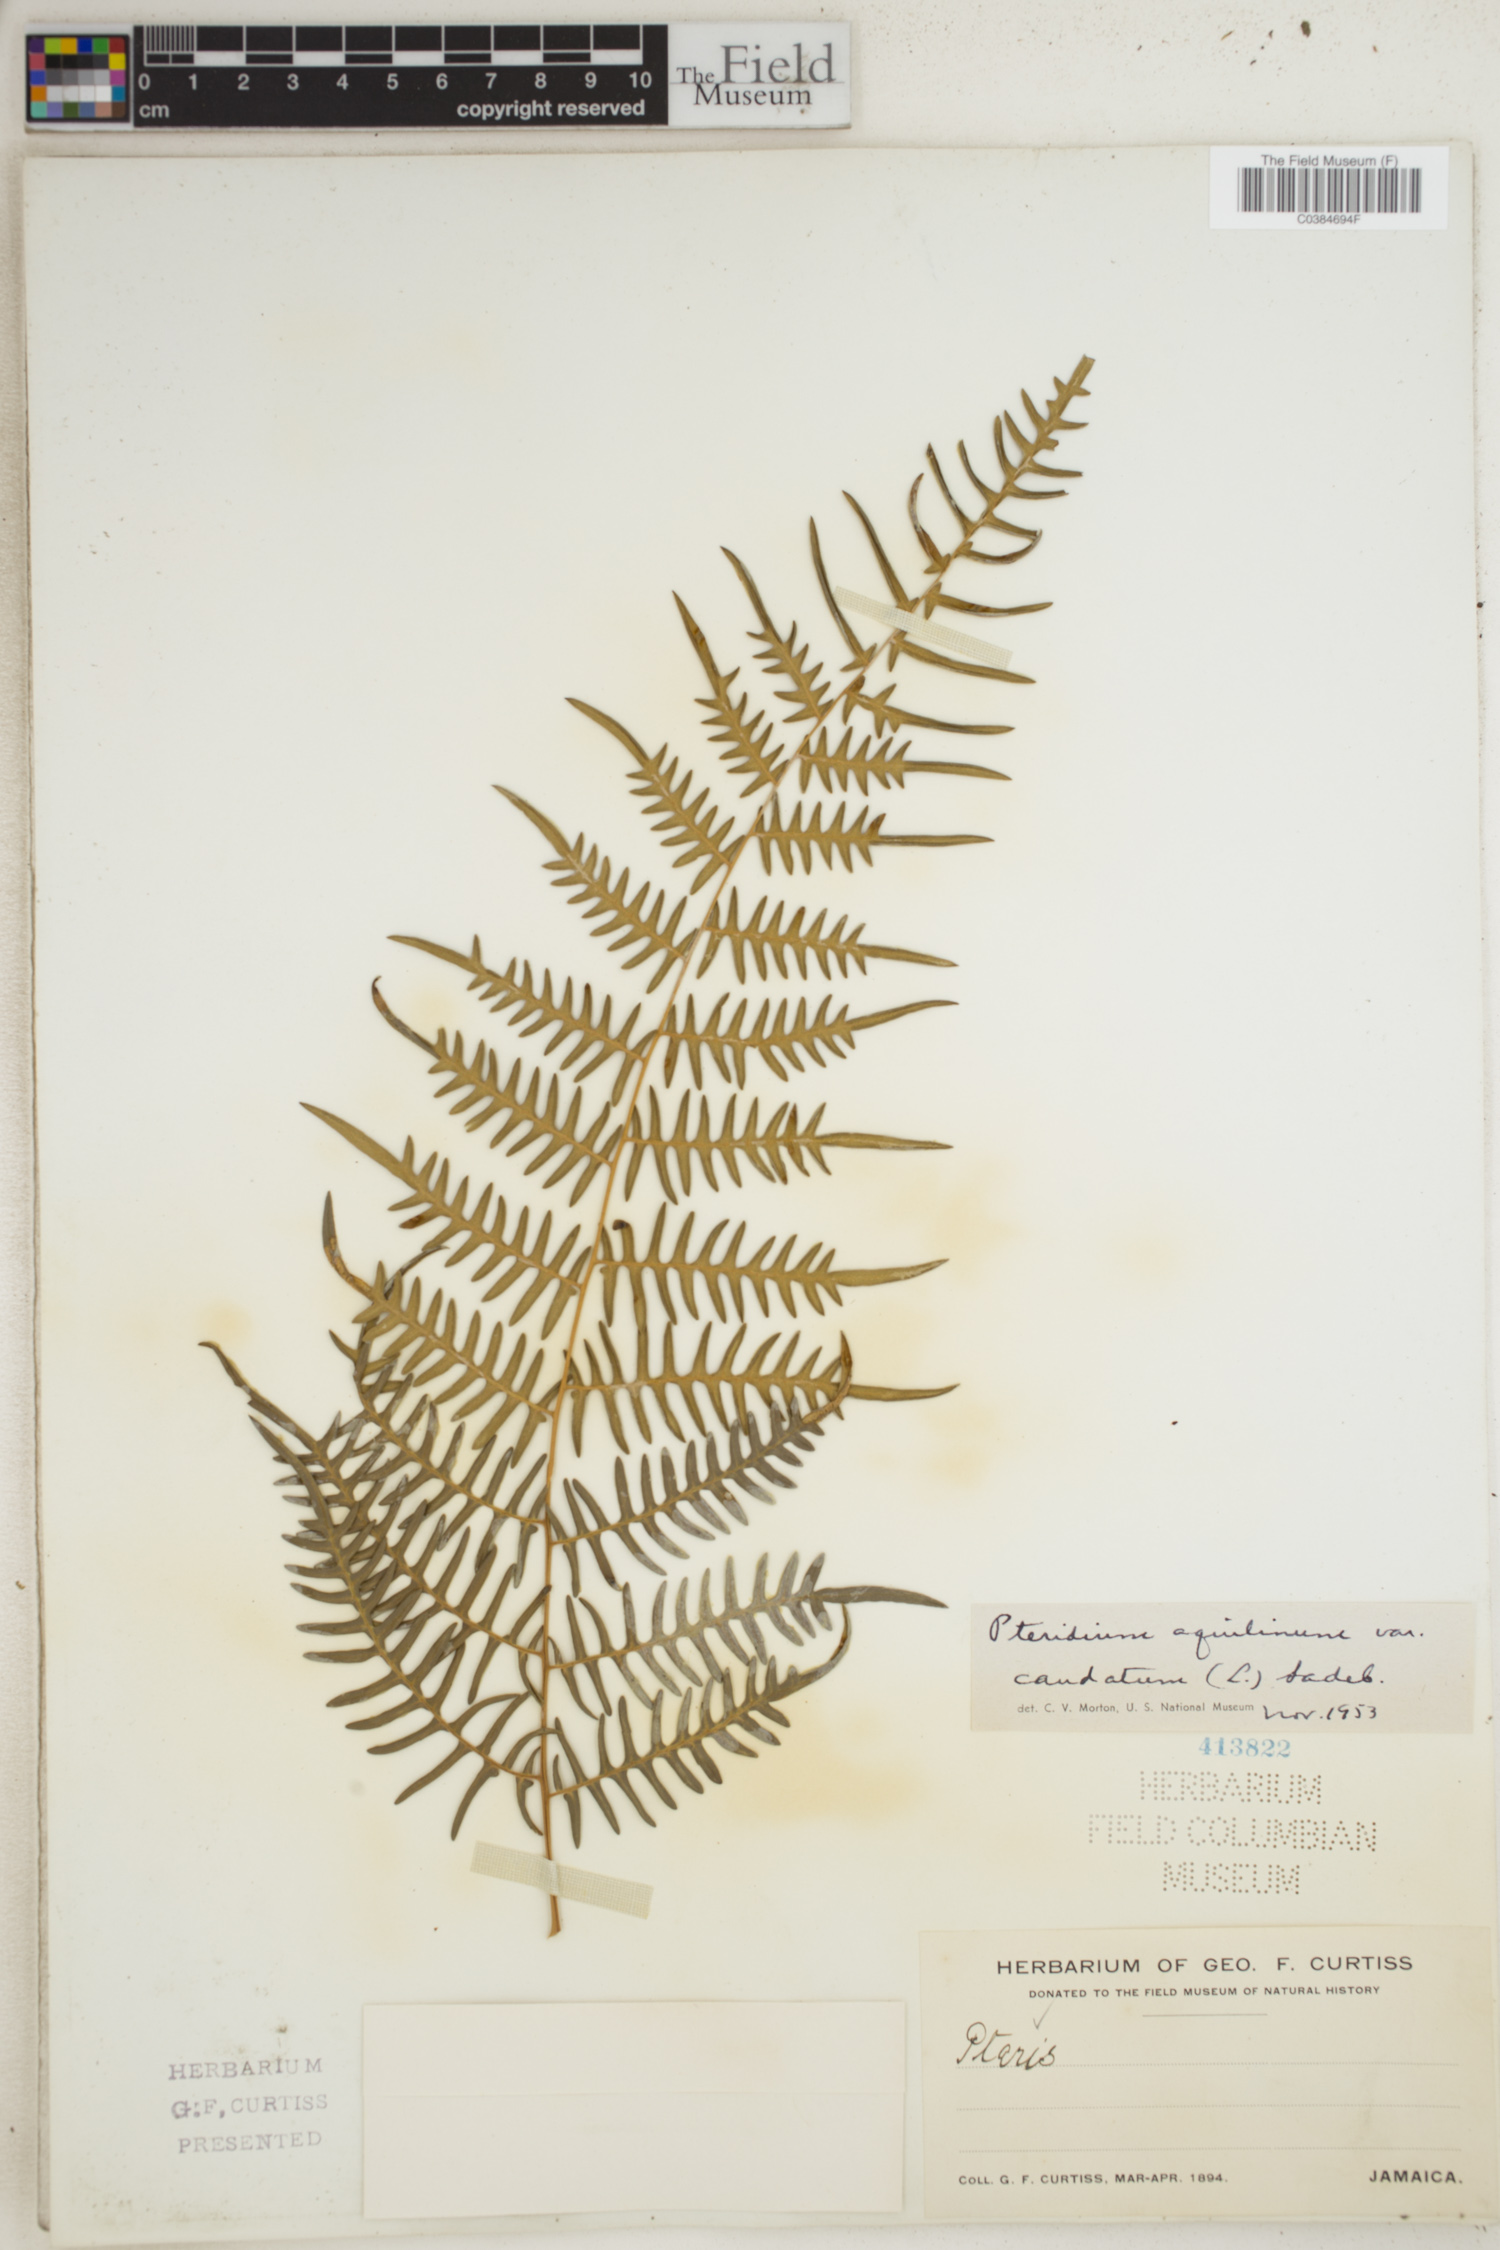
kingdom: Plantae
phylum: Tracheophyta
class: Polypodiopsida
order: Polypodiales
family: Dennstaedtiaceae
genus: Pteridium
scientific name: Pteridium caudatum
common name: Southern bracken fern
